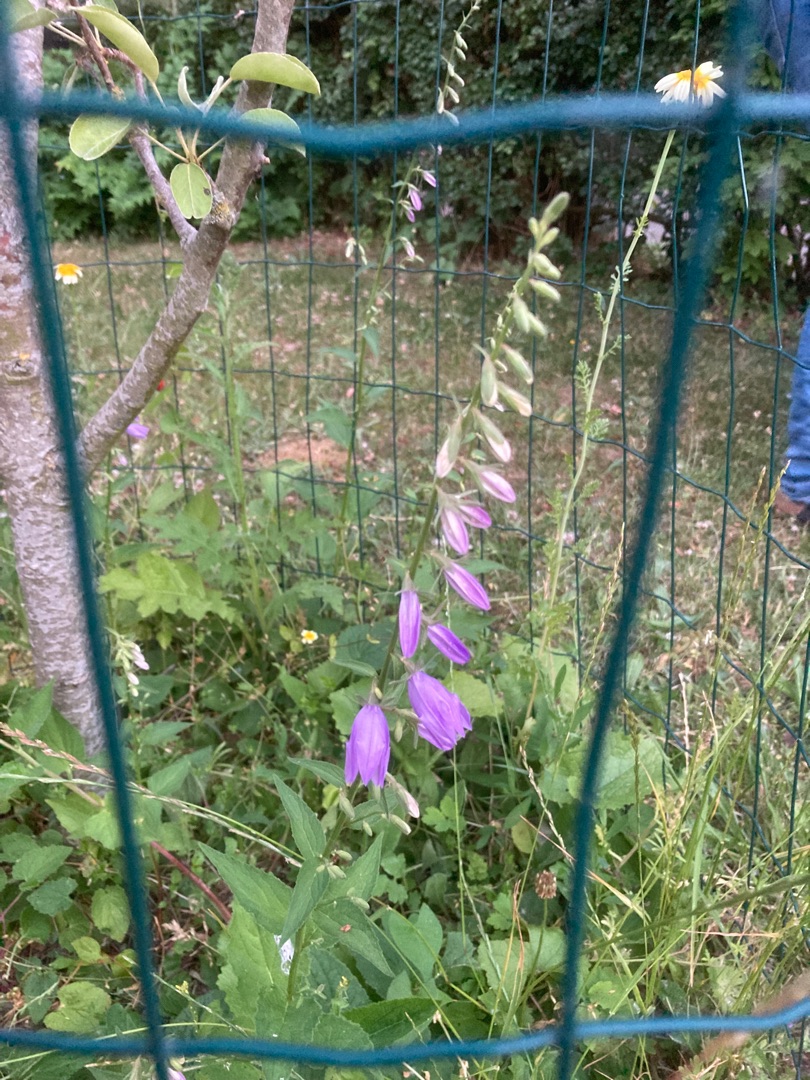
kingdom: Plantae
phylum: Tracheophyta
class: Magnoliopsida
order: Asterales
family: Campanulaceae
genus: Campanula
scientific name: Campanula rapunculoides
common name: Ensidig klokke
